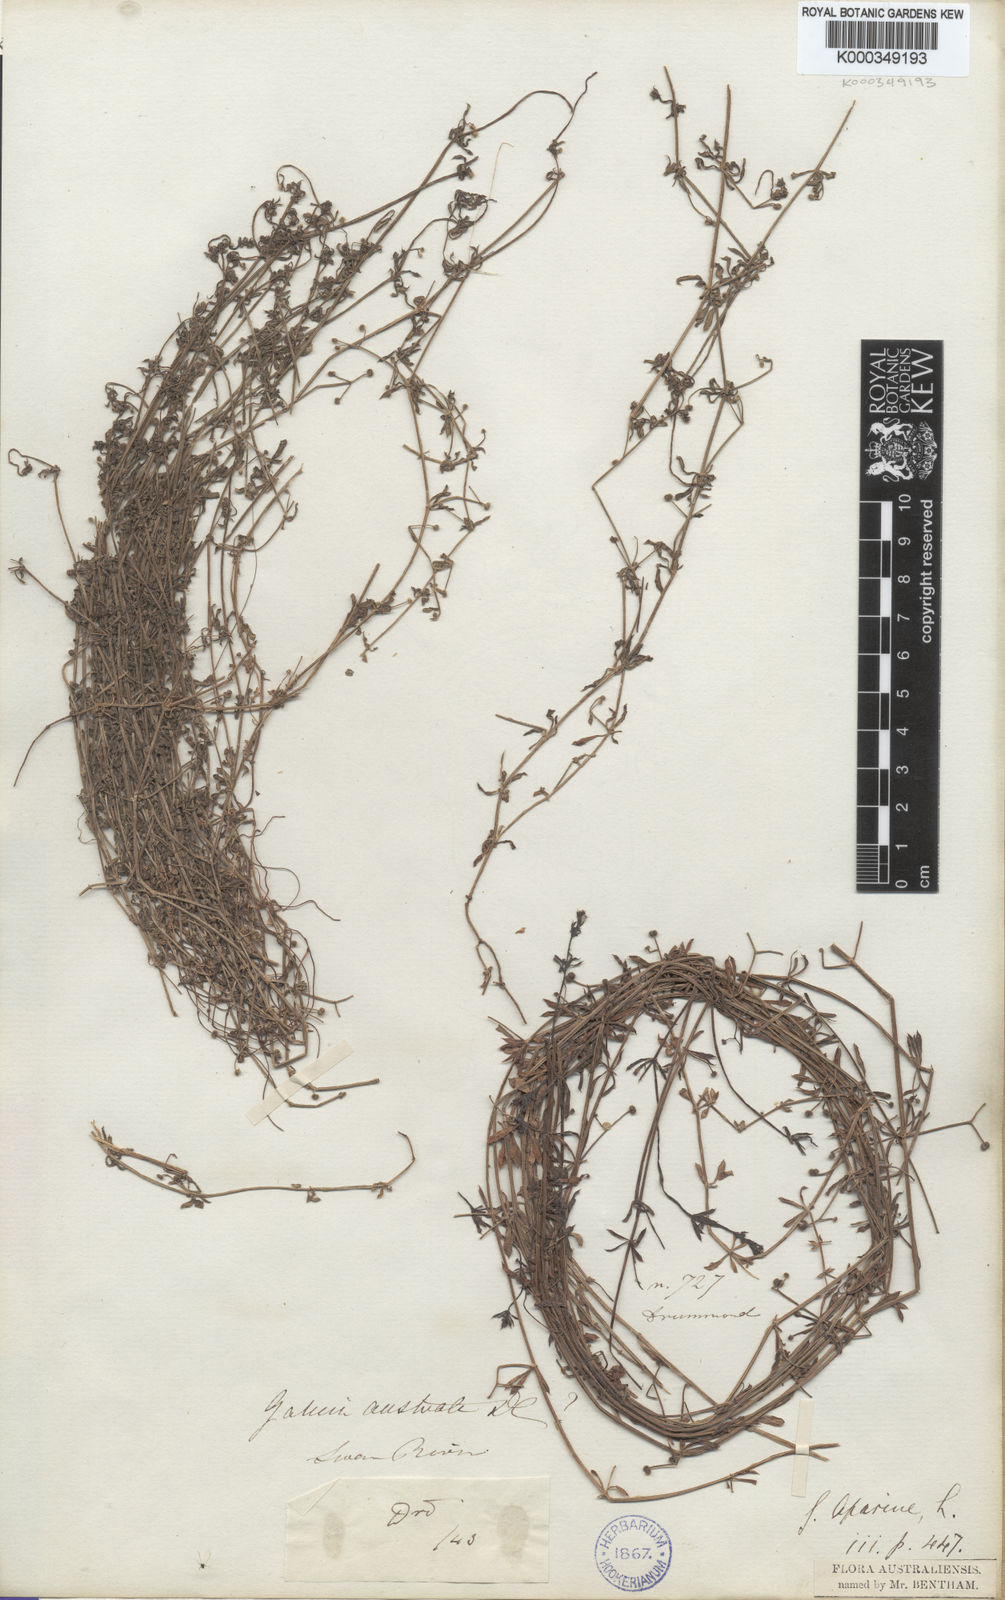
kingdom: Plantae
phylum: Tracheophyta
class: Magnoliopsida
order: Gentianales
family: Rubiaceae
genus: Galium
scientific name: Galium aparine
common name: Cleavers
